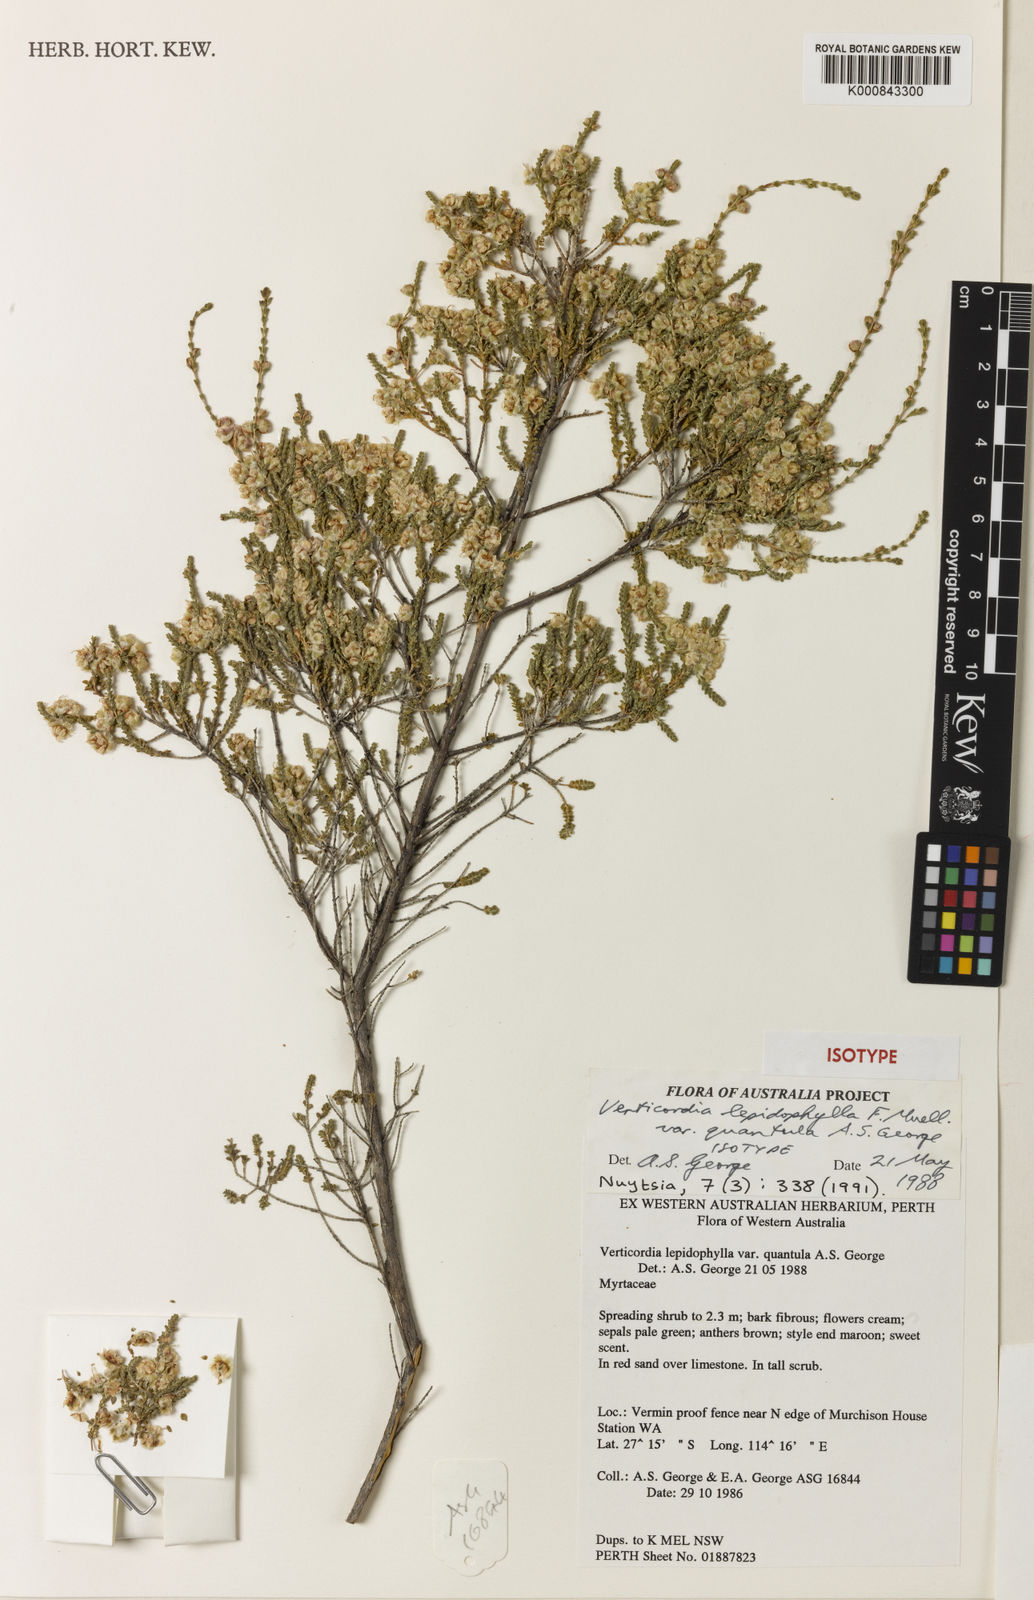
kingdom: Plantae
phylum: Tracheophyta
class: Magnoliopsida
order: Myrtales
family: Myrtaceae
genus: Verticordia
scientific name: Verticordia lepidophylla
